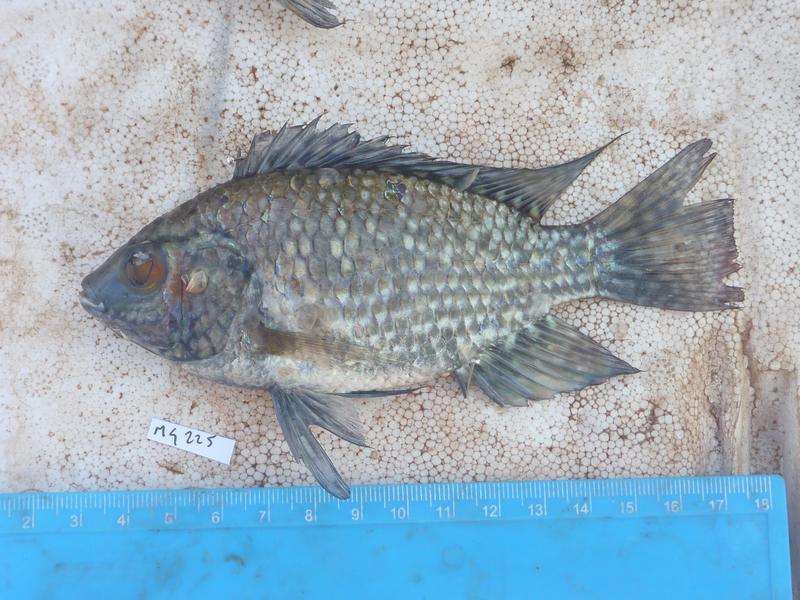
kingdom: Animalia
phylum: Chordata
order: Perciformes
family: Cichlidae
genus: Oreochromis
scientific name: Oreochromis leucostictus
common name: Blue spotted tilapia
